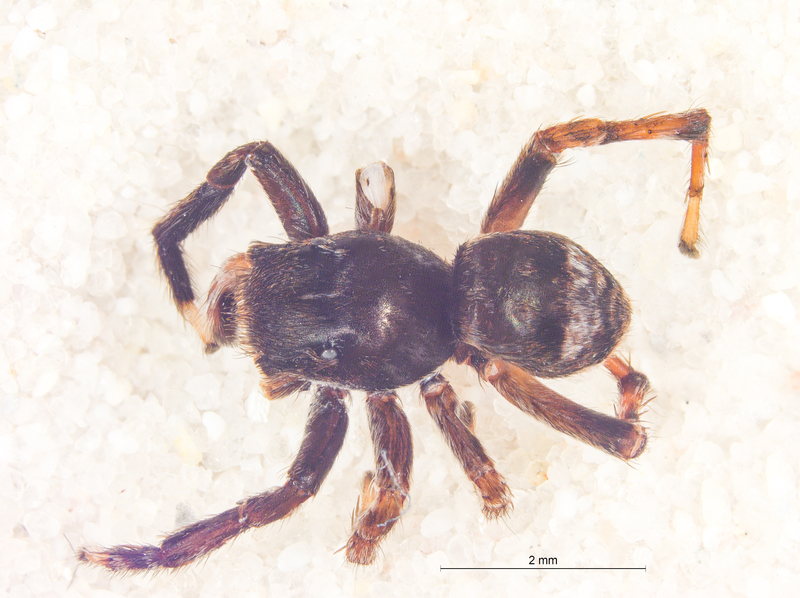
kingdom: Animalia
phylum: Arthropoda
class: Arachnida
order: Araneae
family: Salticidae
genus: Sittisax
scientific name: Sittisax saxicola
